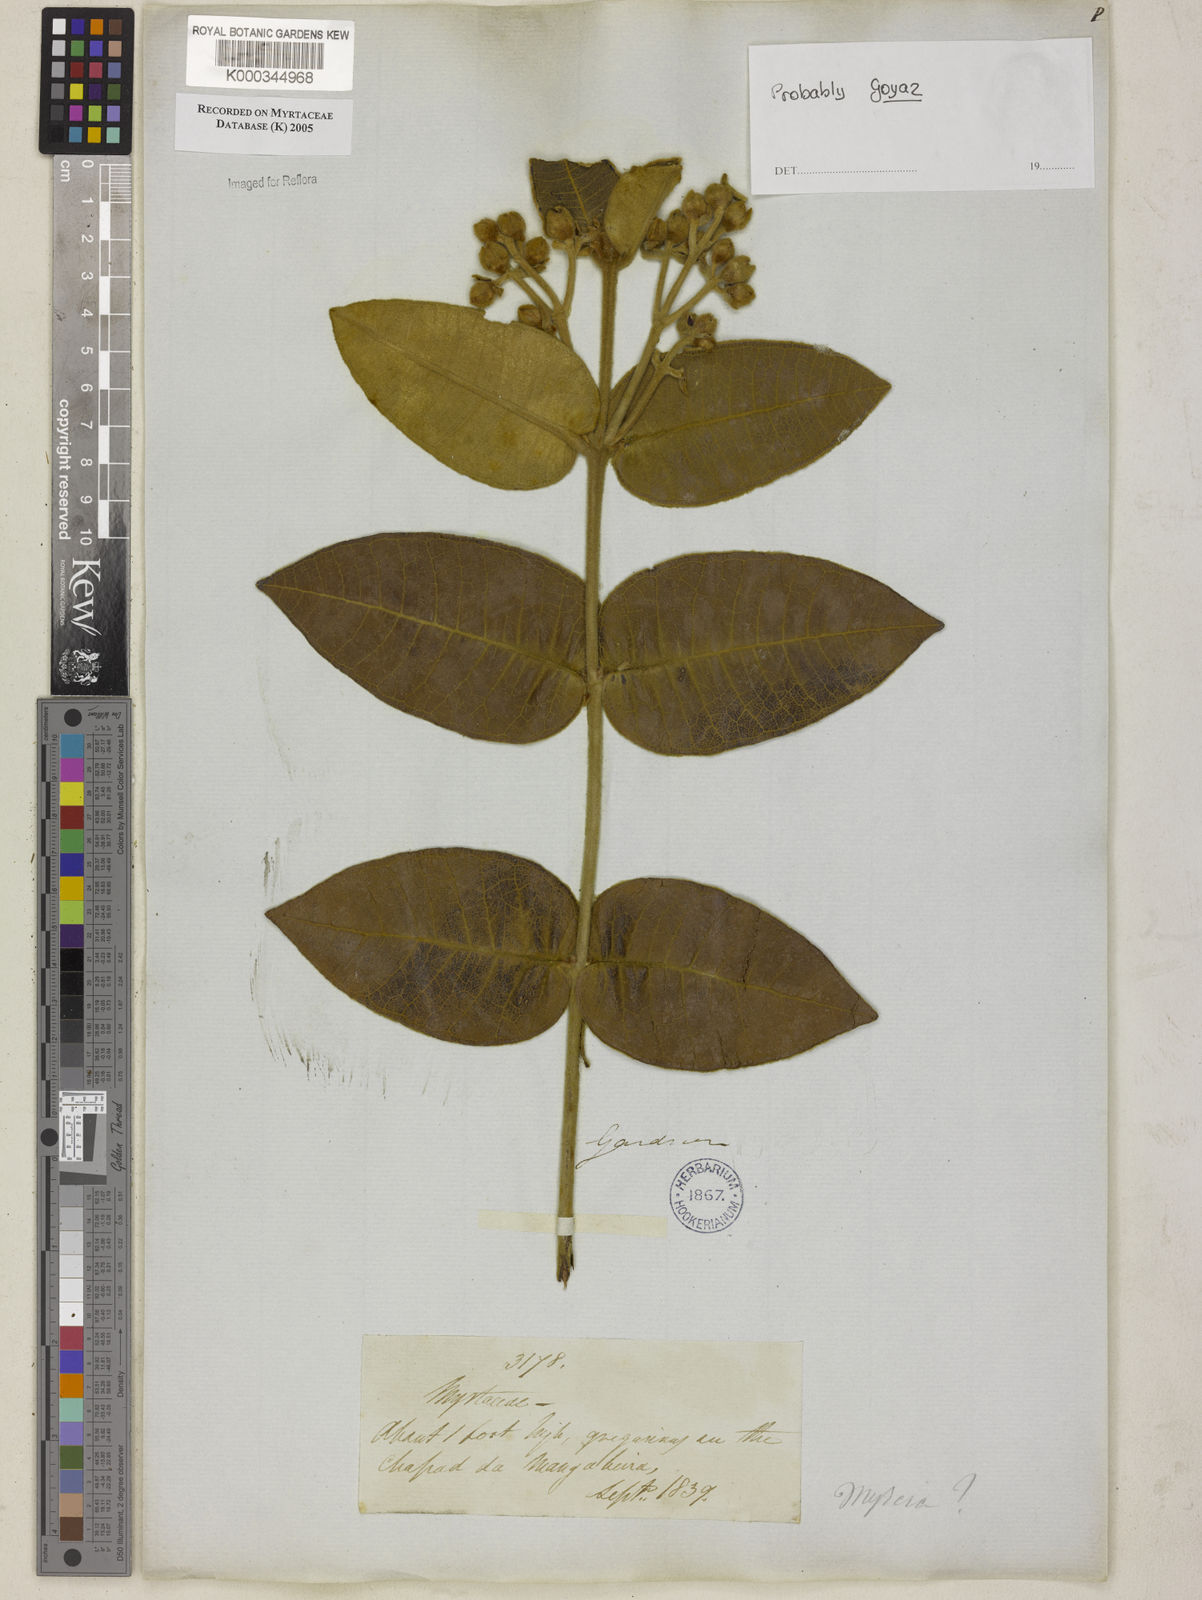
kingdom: Plantae
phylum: Tracheophyta
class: Magnoliopsida
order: Myrtales
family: Myrtaceae
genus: Myrcia
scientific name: Myrcia
